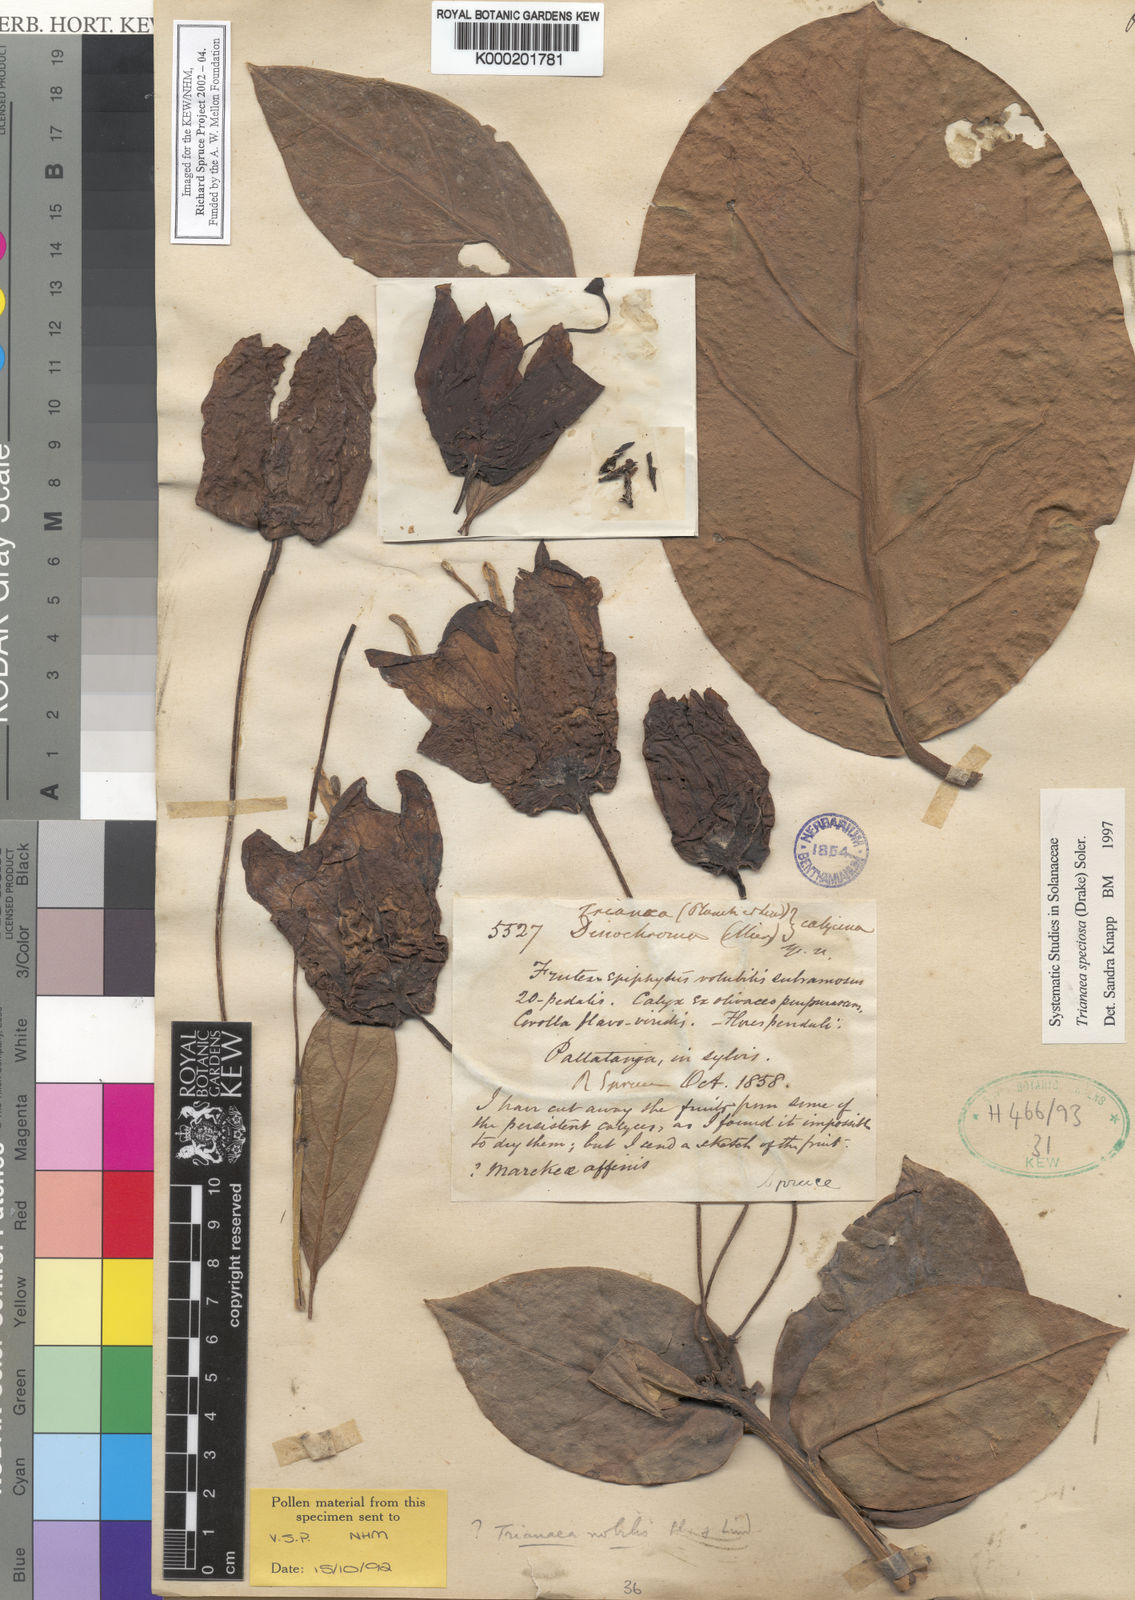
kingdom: Plantae
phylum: Tracheophyta
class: Magnoliopsida
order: Solanales
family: Solanaceae
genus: Poortmannia
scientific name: Poortmannia speciosa
